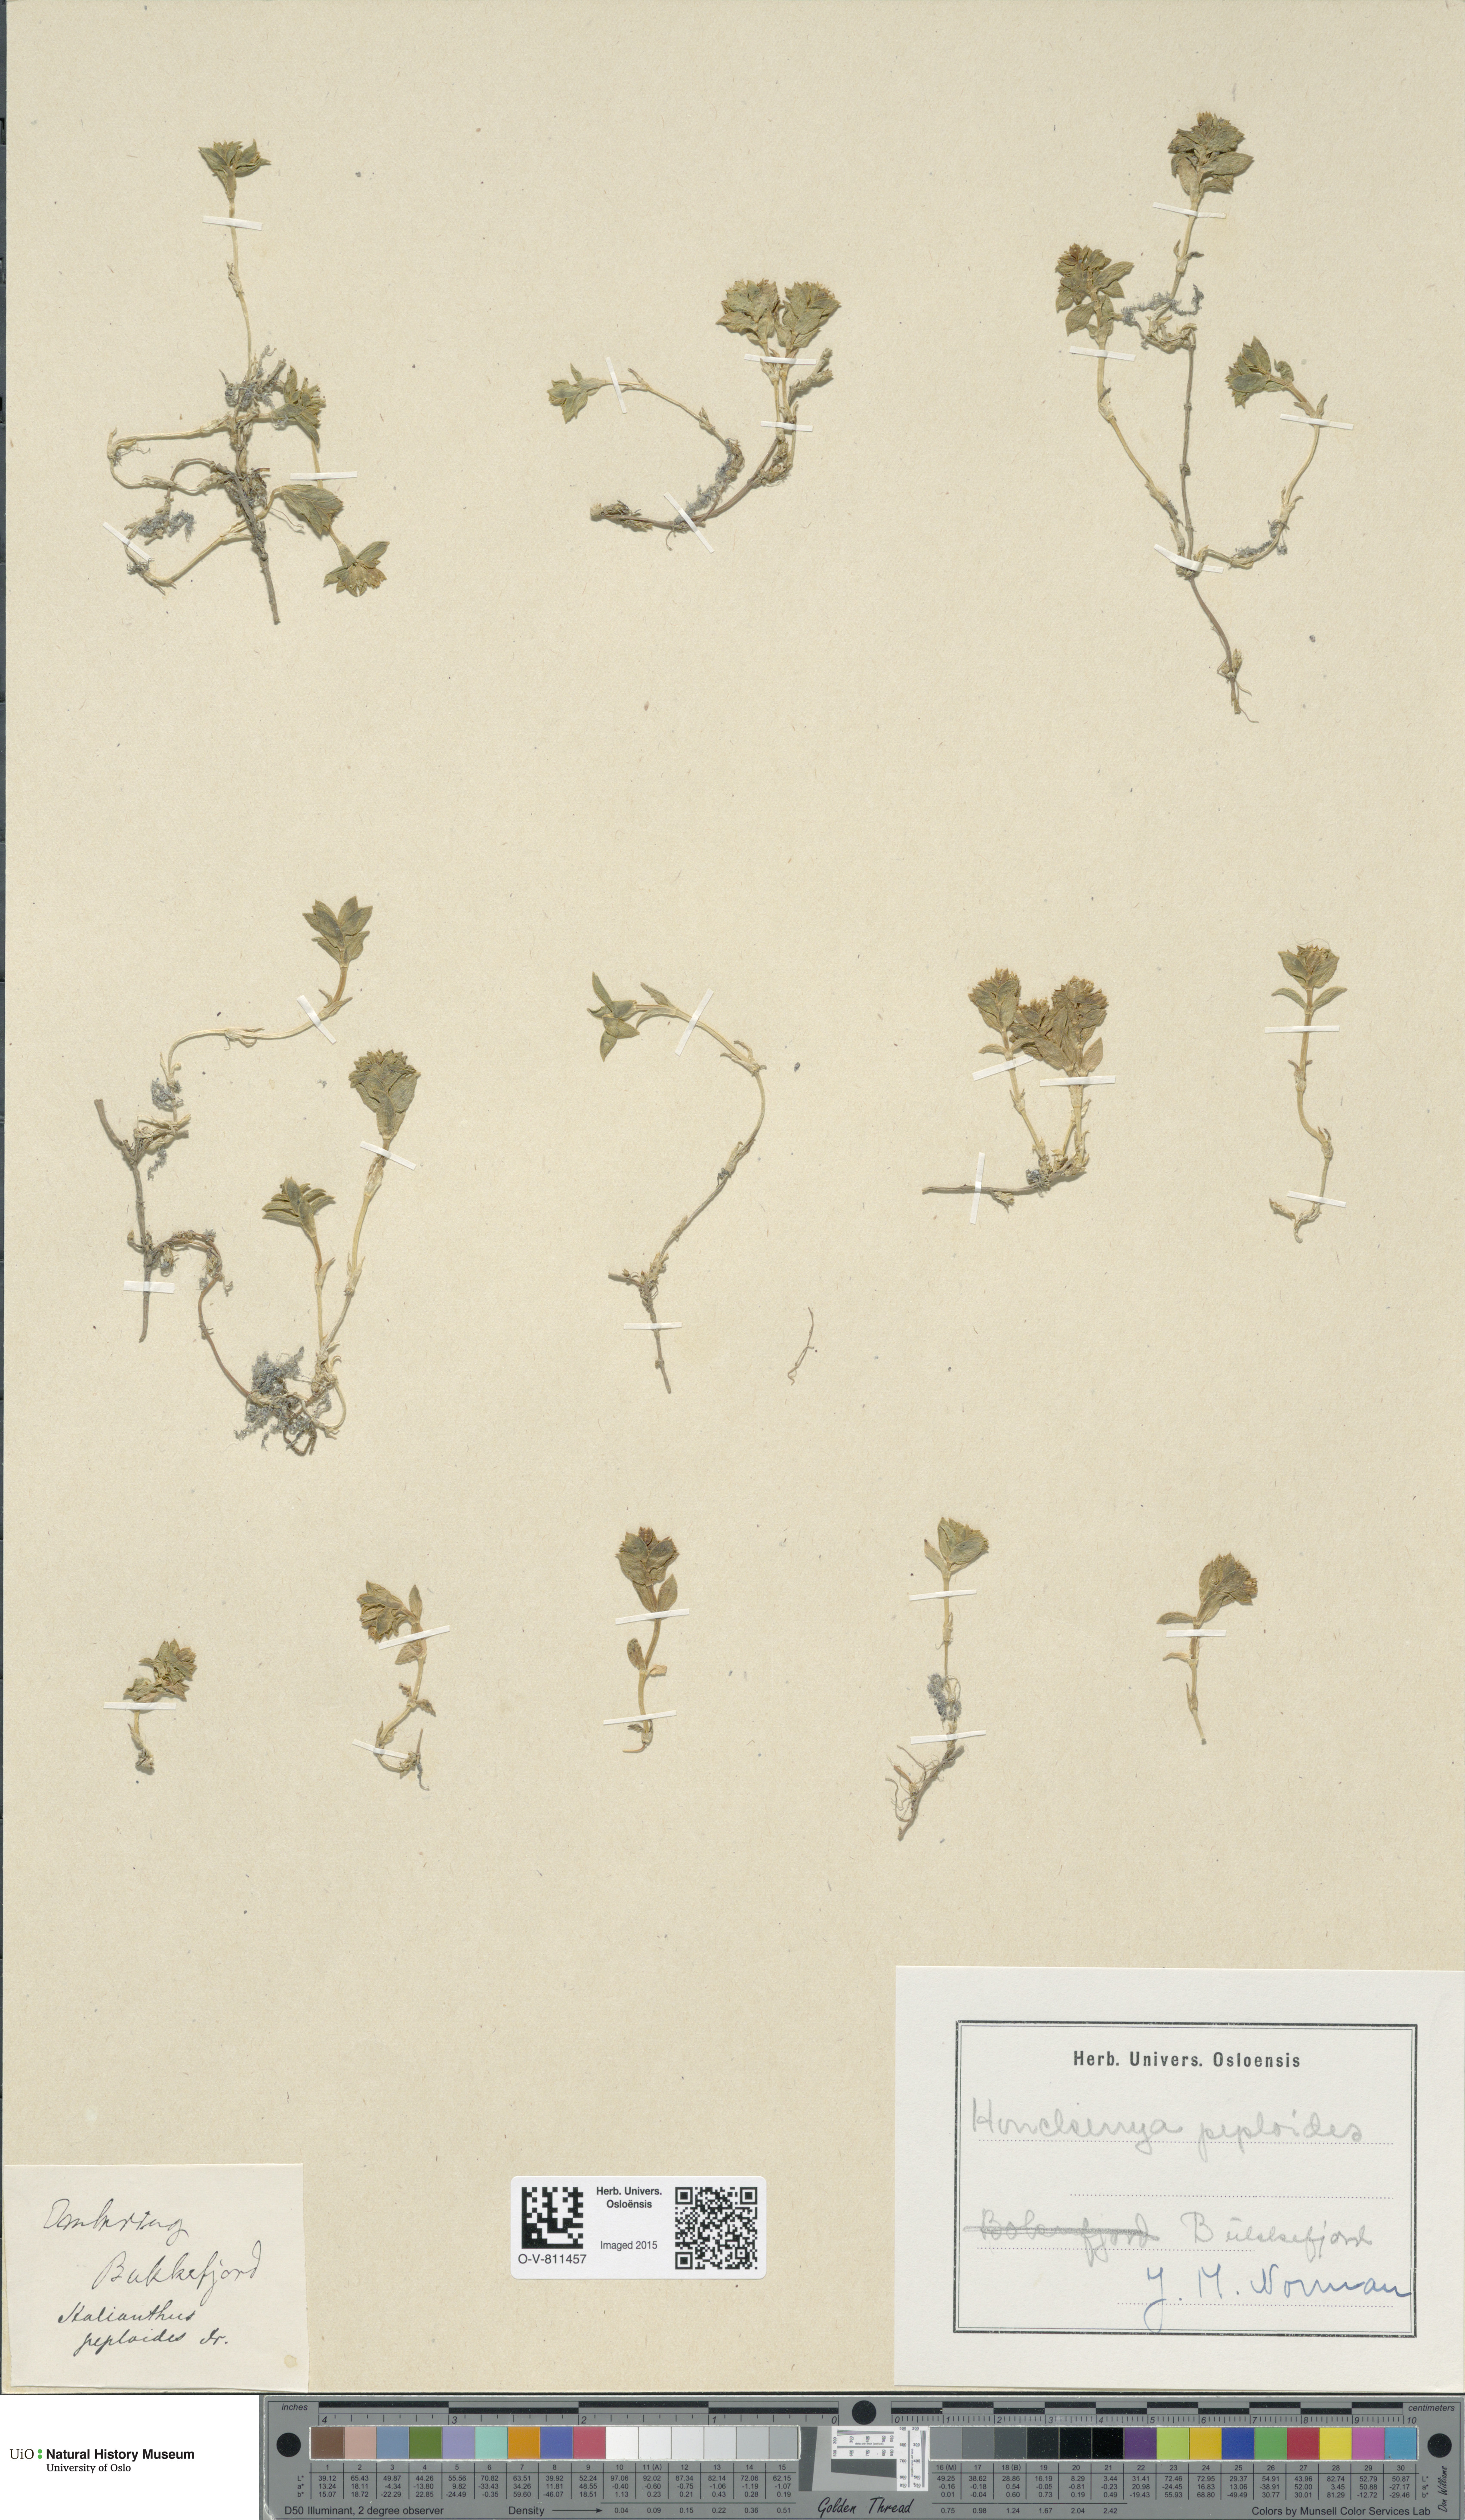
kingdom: Plantae
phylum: Tracheophyta
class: Magnoliopsida
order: Caryophyllales
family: Caryophyllaceae
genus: Honckenya
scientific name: Honckenya peploides
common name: Sea sandwort
